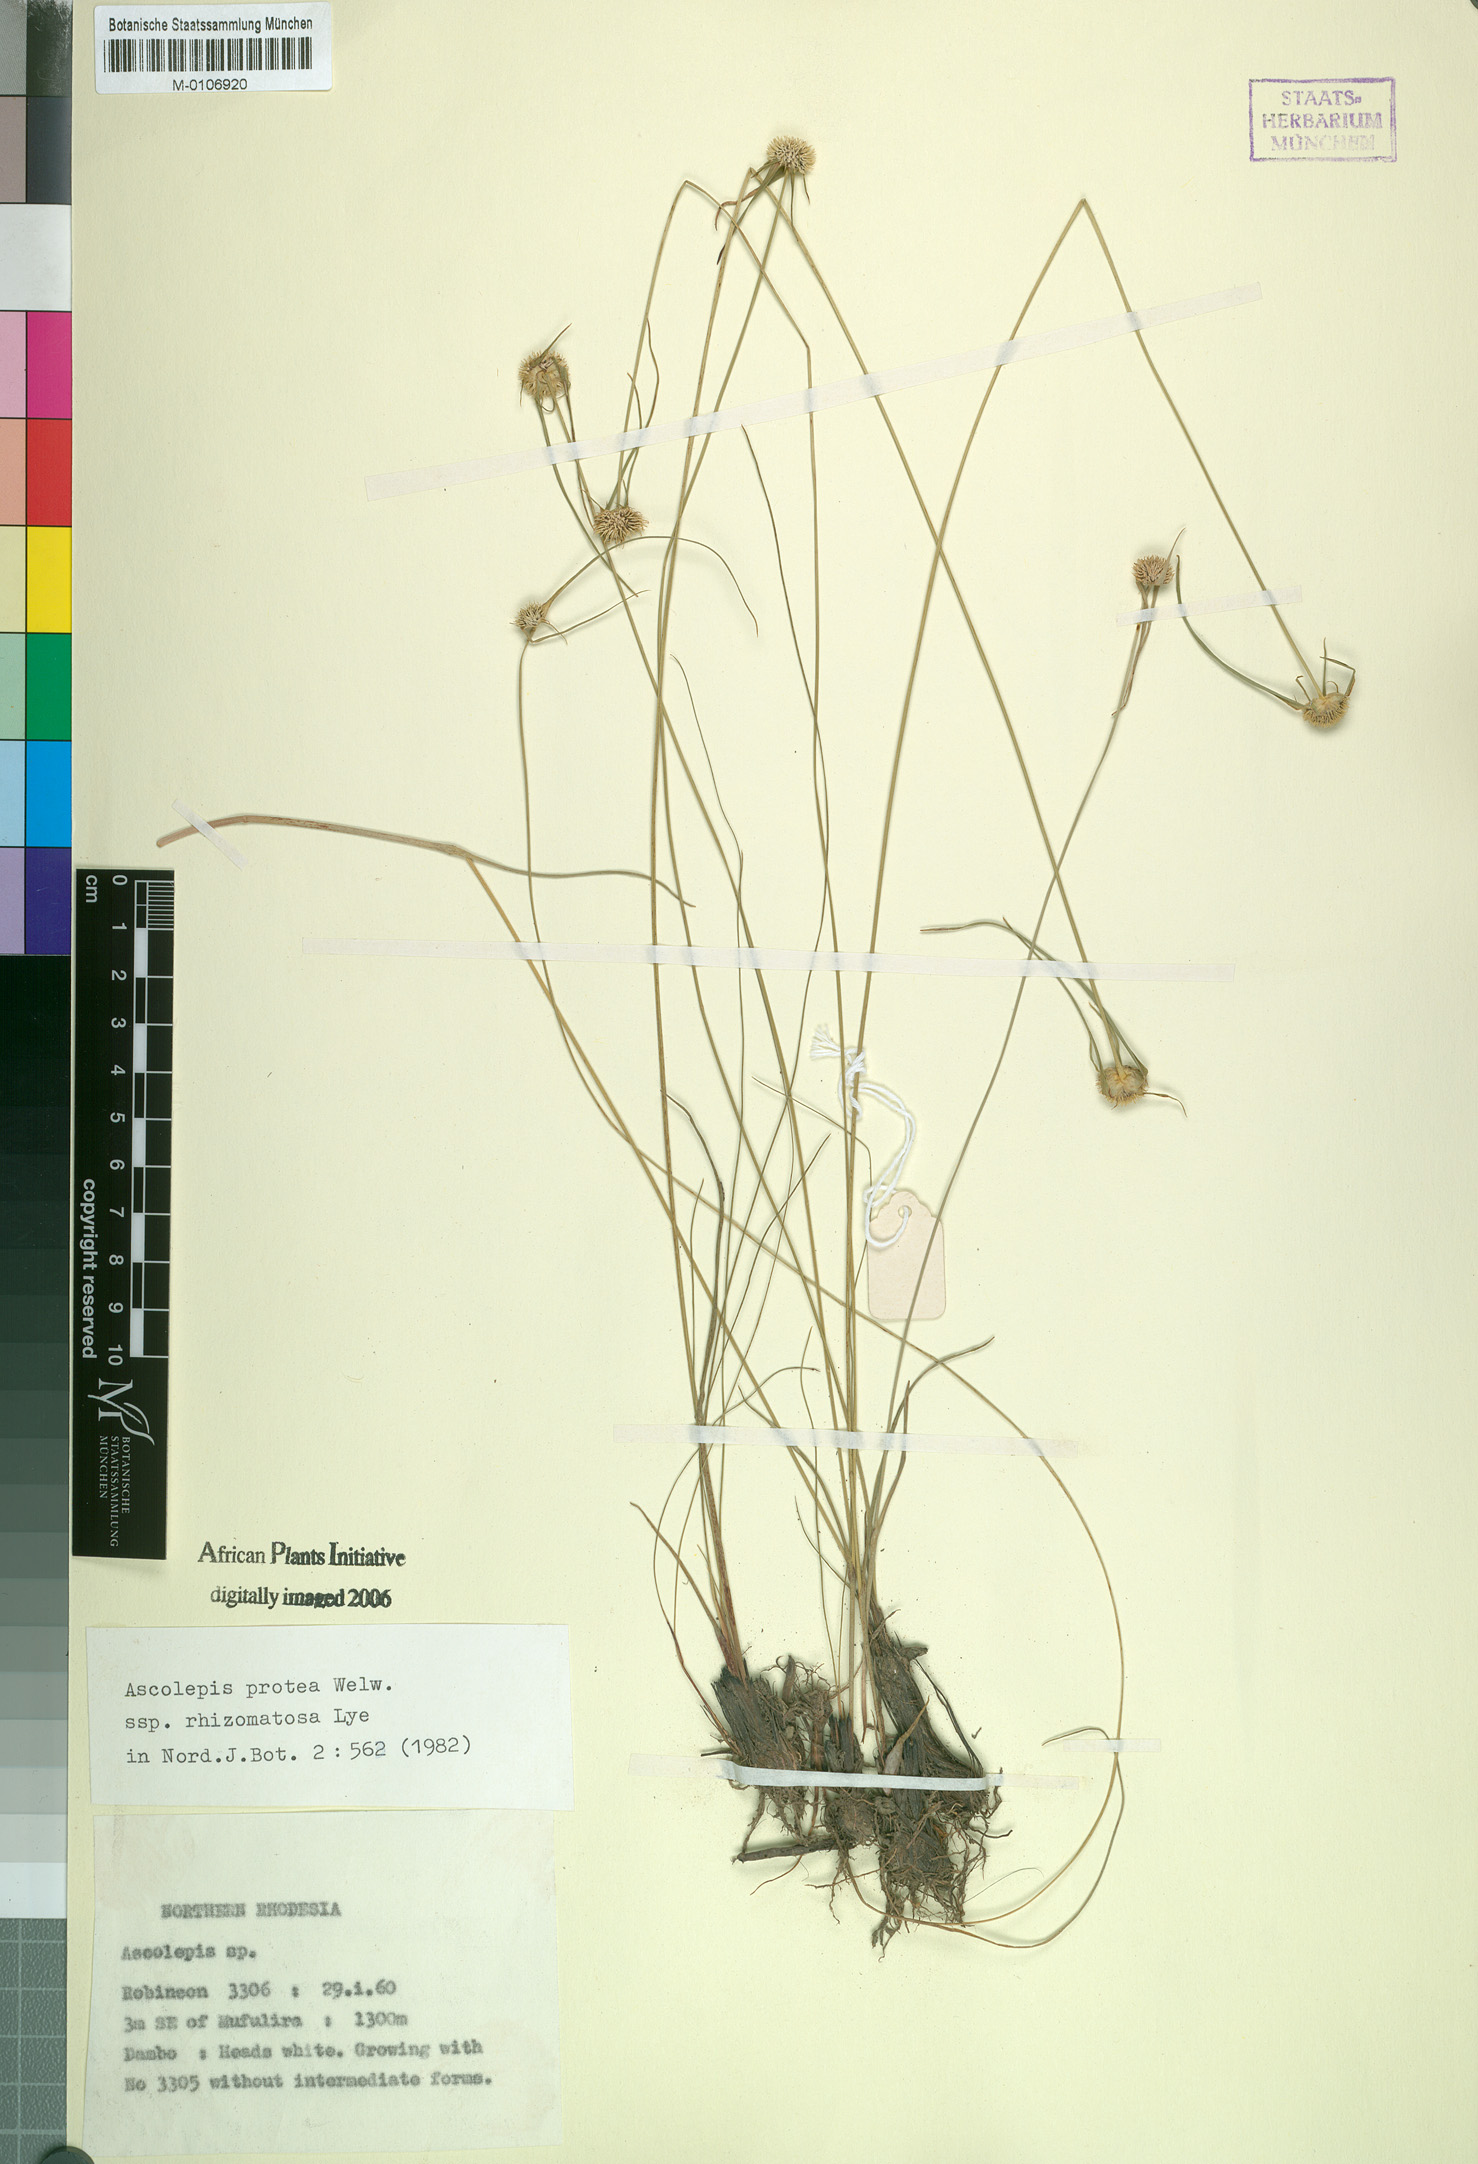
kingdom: Plantae
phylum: Tracheophyta
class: Liliopsida
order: Poales
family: Cyperaceae
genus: Cyperus
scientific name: Cyperus proteus
